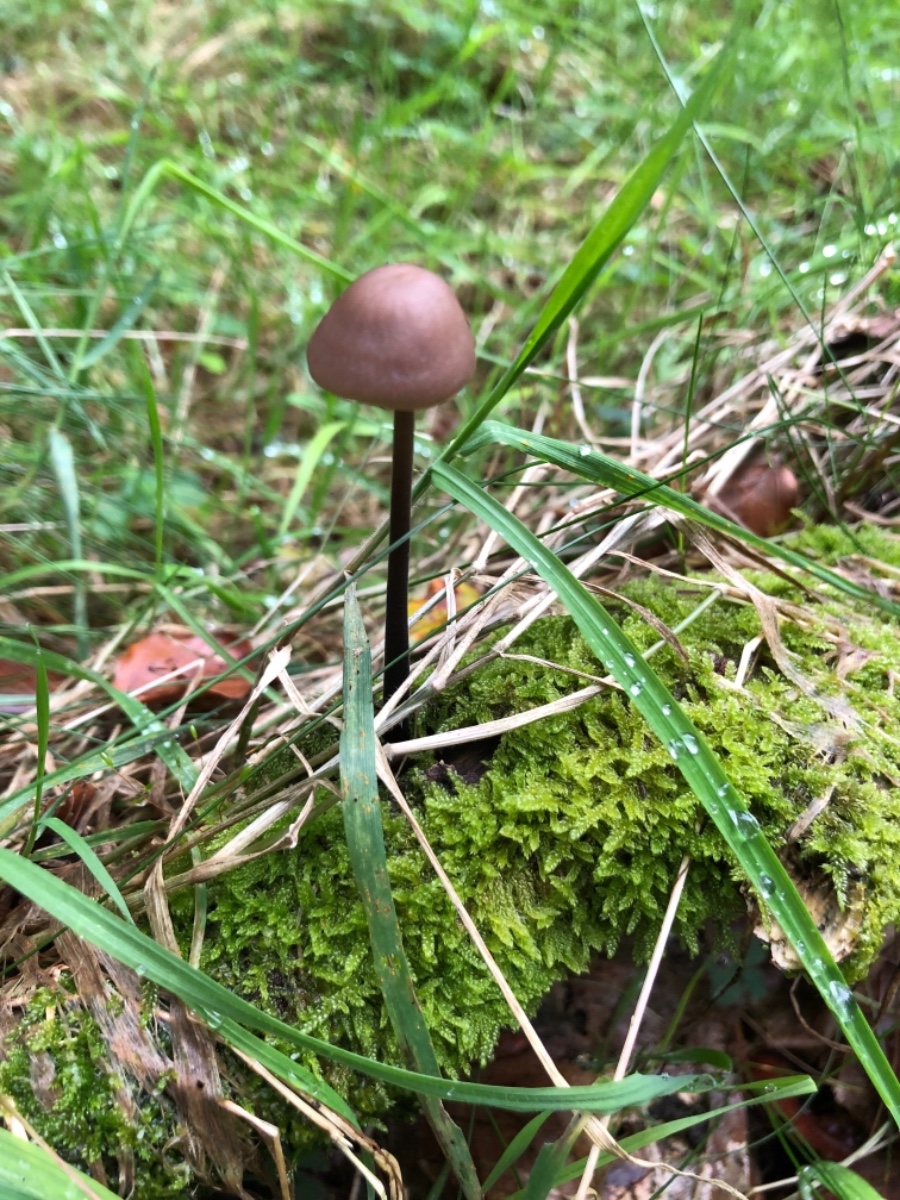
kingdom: Fungi
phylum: Basidiomycota
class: Agaricomycetes
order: Agaricales
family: Omphalotaceae
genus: Mycetinis
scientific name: Mycetinis alliaceus
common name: stor løghat
